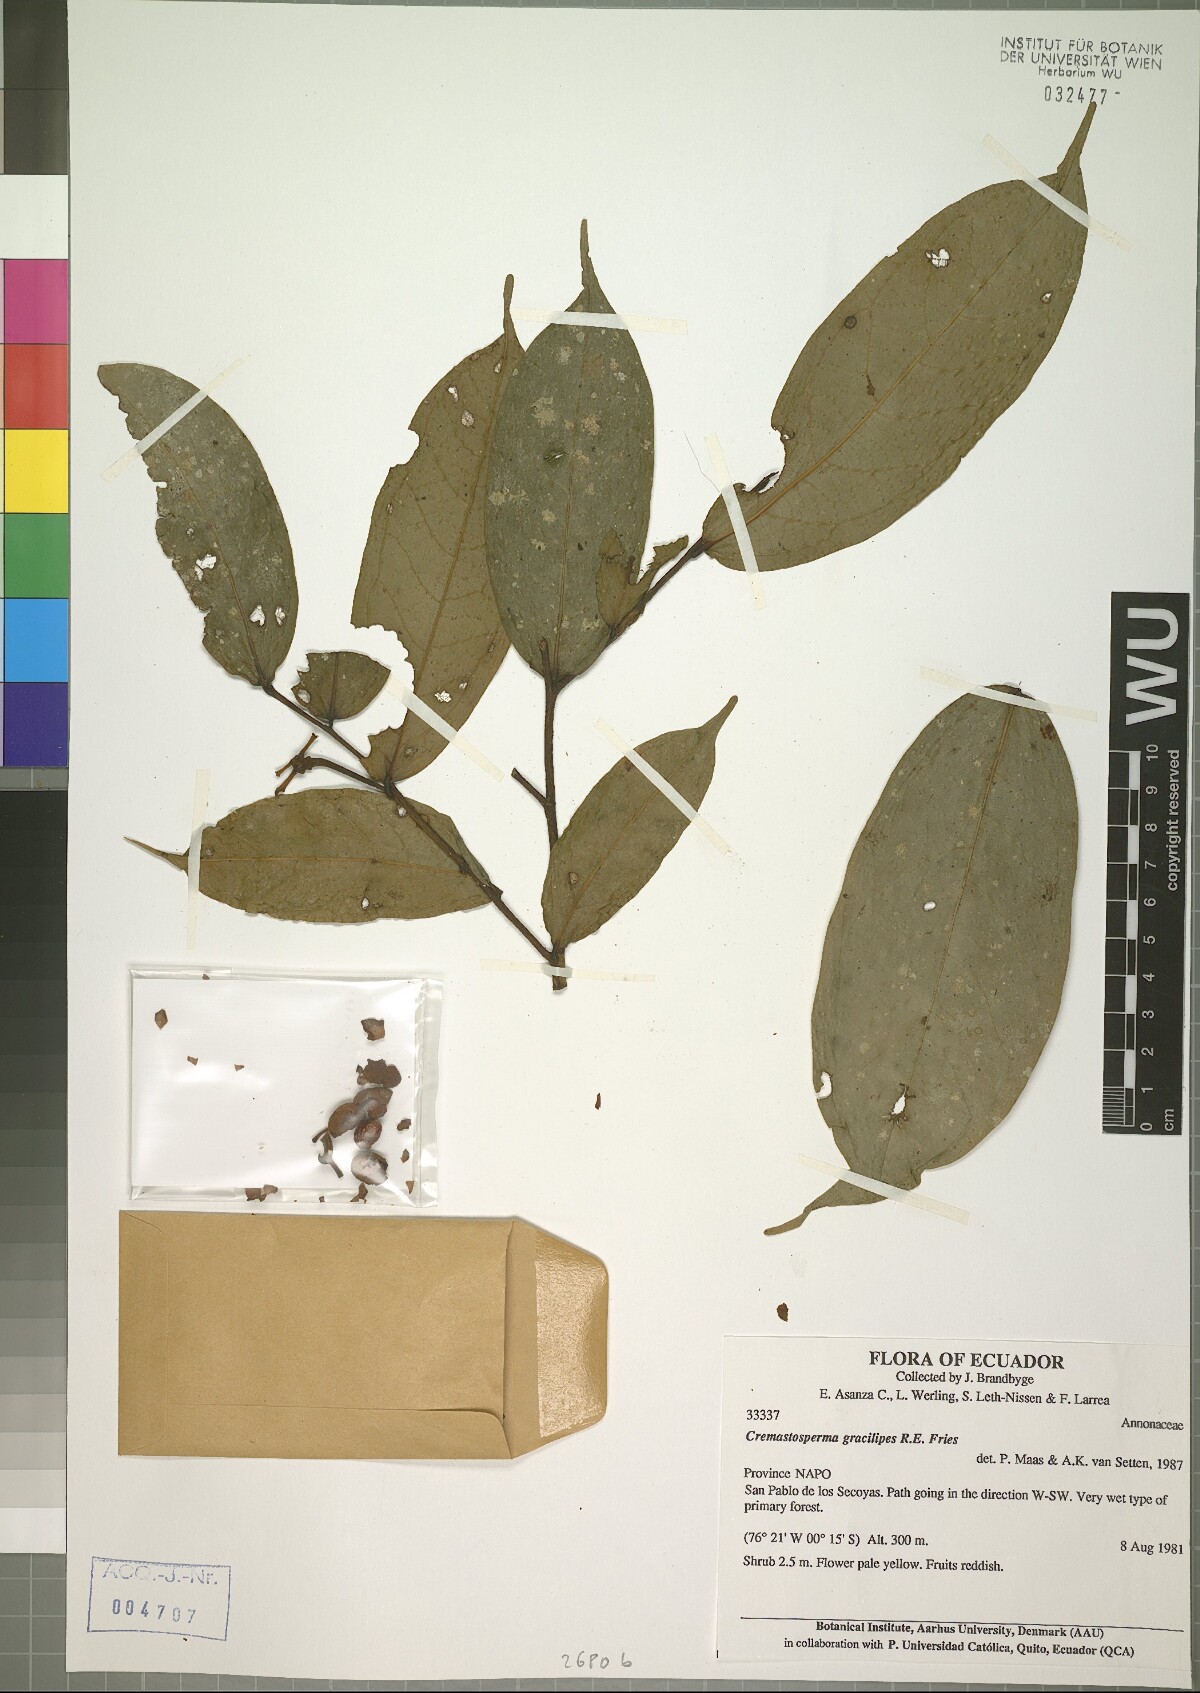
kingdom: Plantae
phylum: Tracheophyta
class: Magnoliopsida
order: Magnoliales
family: Annonaceae
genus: Cremastosperma
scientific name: Cremastosperma gracilipes
